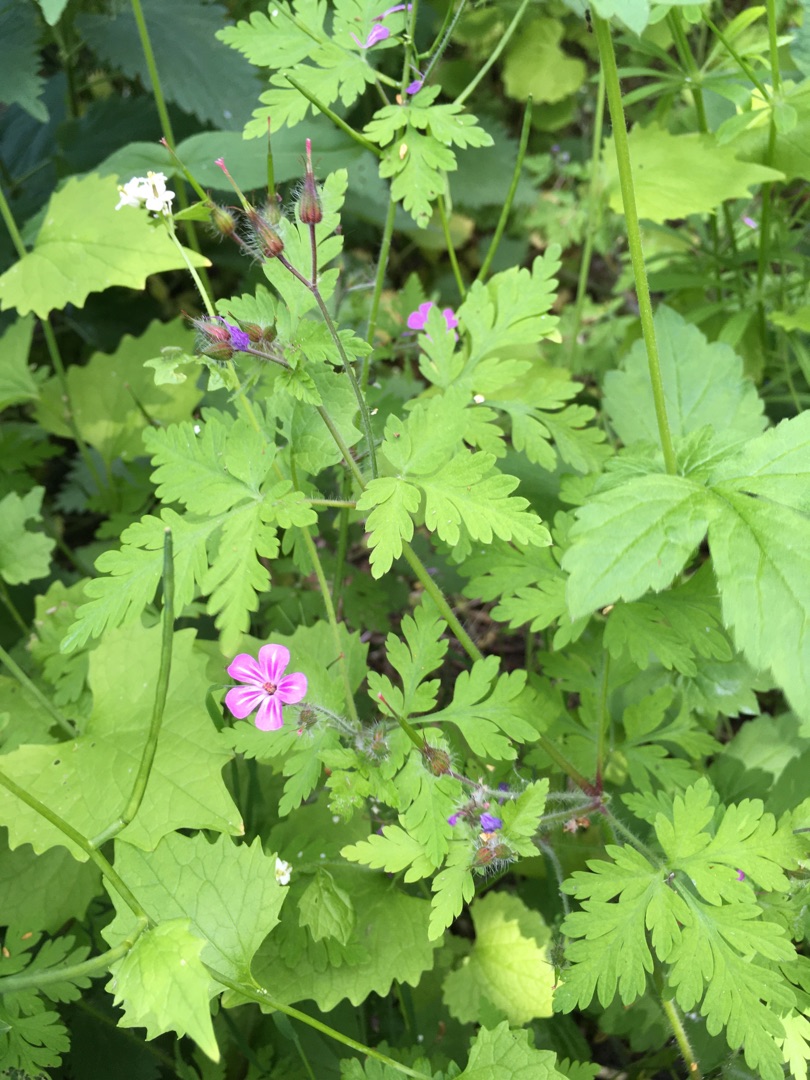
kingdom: Plantae
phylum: Tracheophyta
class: Magnoliopsida
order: Geraniales
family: Geraniaceae
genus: Geranium
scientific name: Geranium robertianum
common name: Stinkende storkenæb
